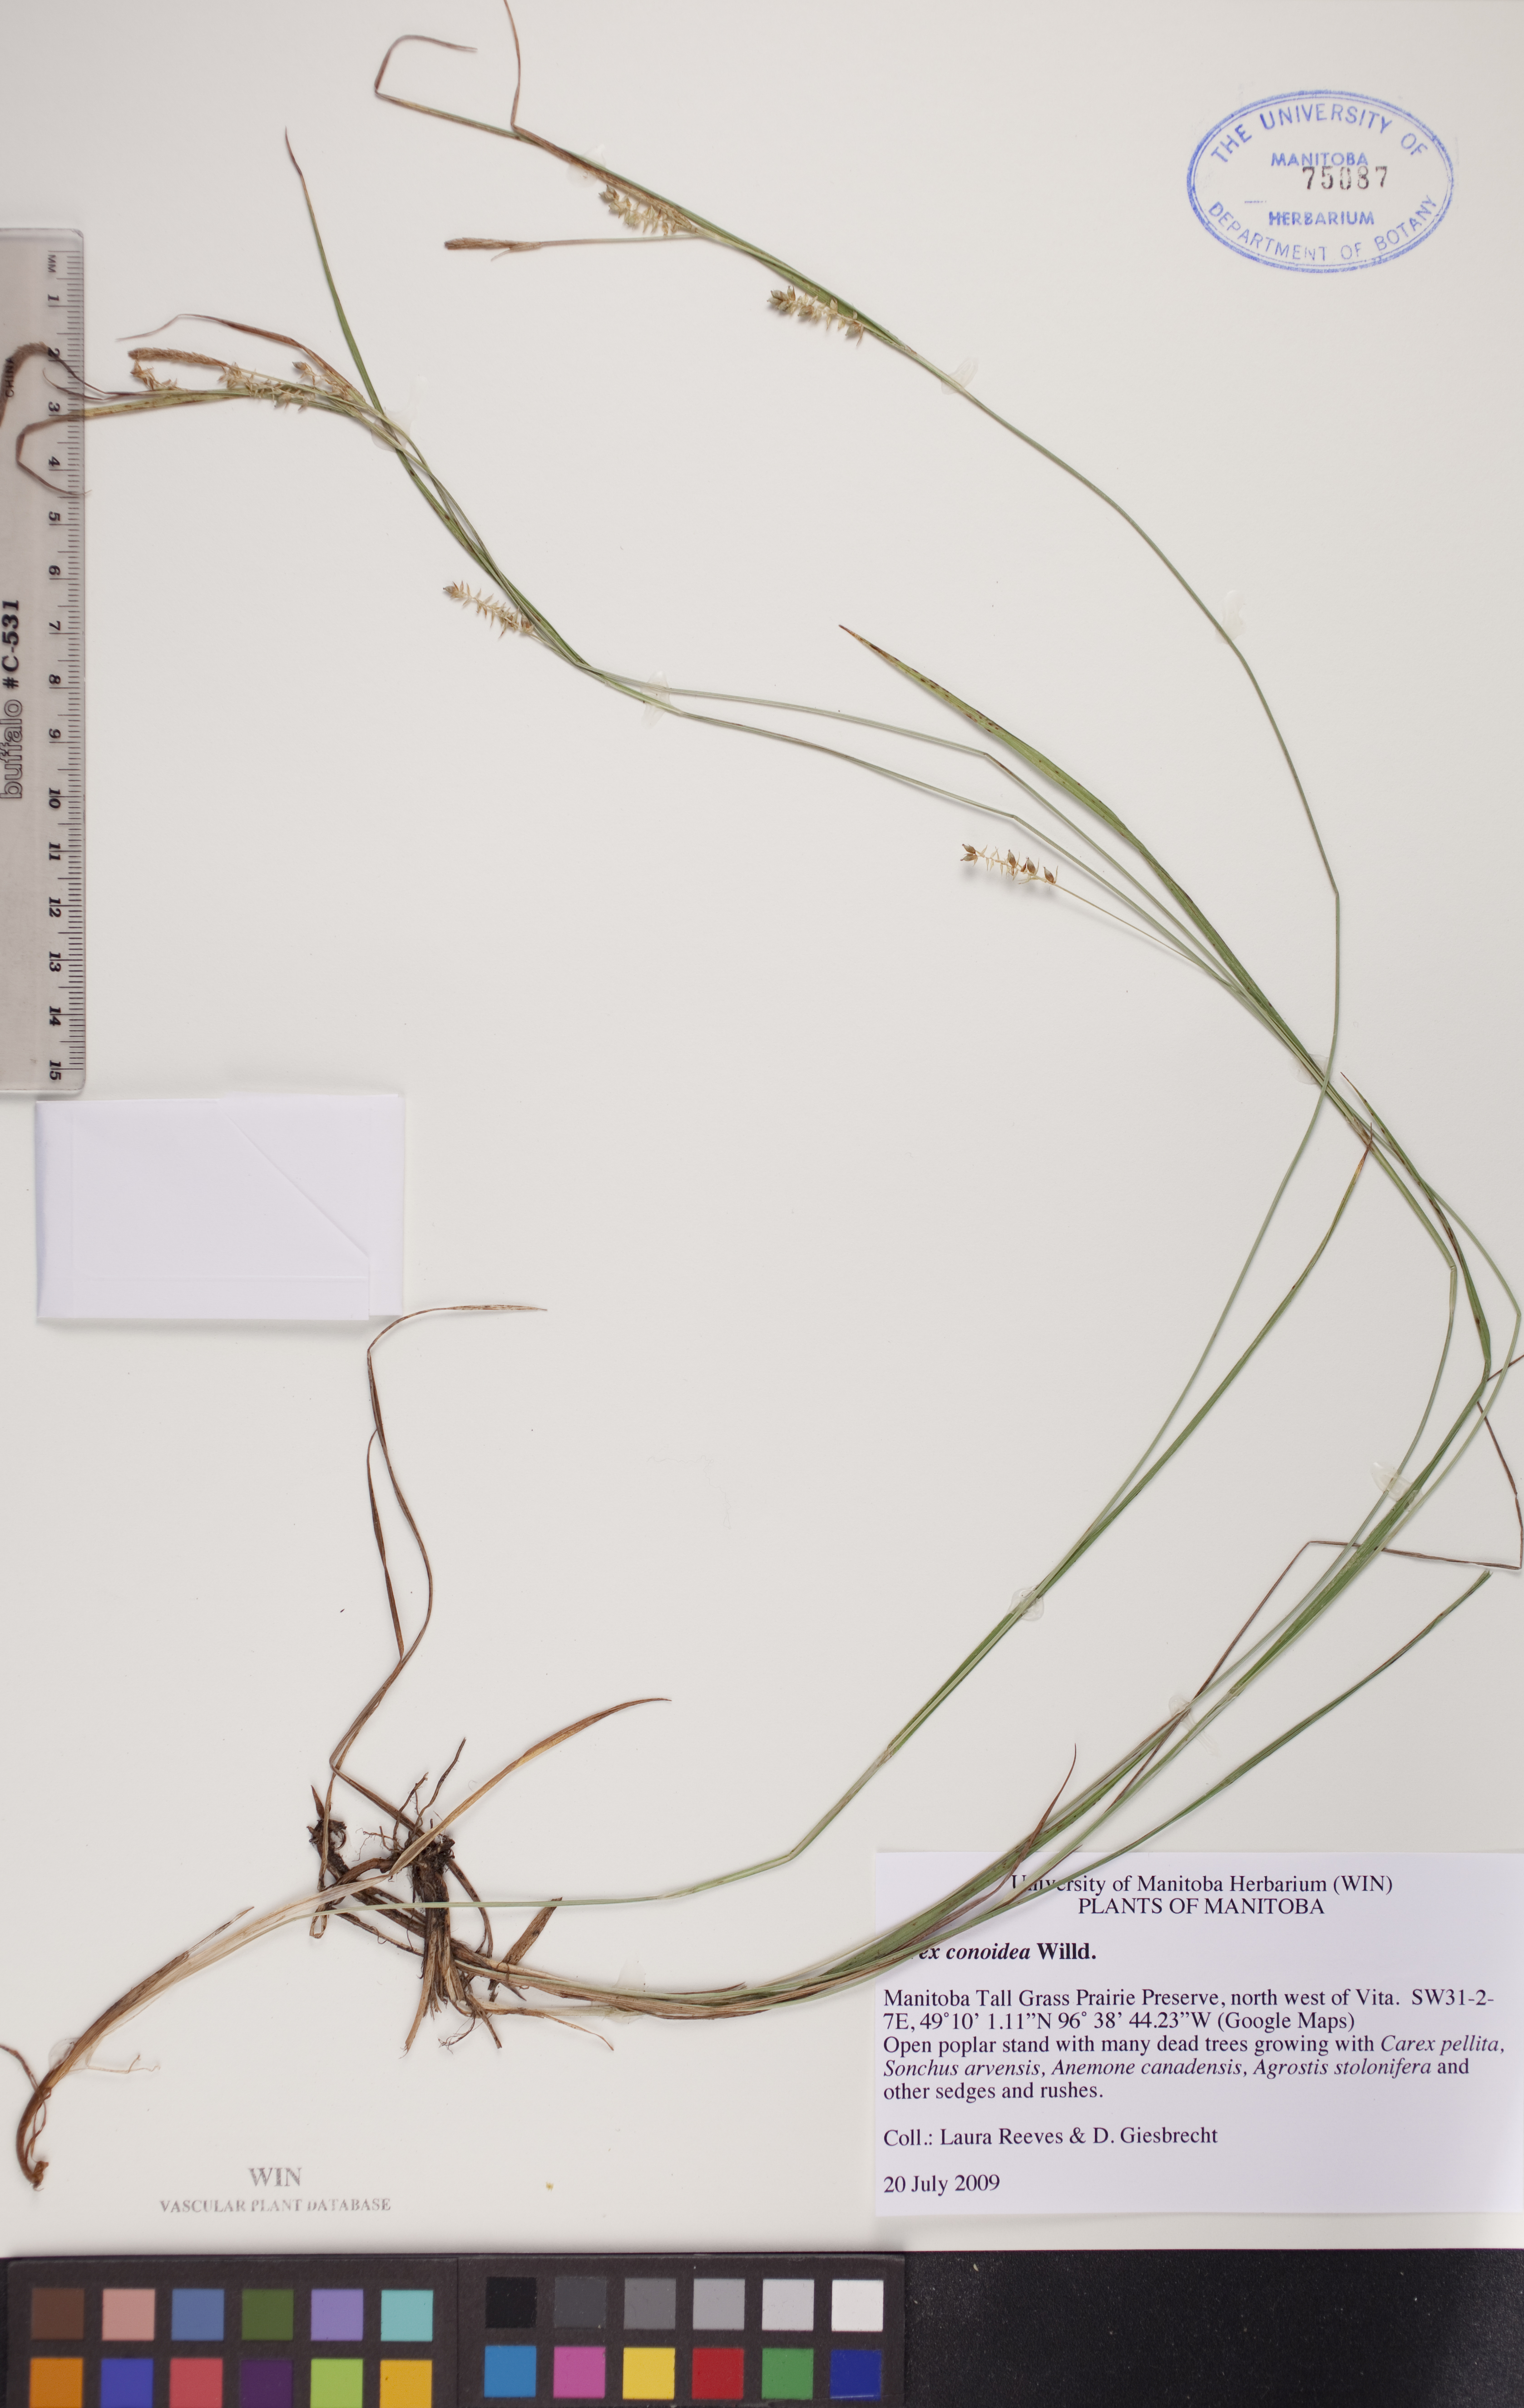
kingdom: Plantae
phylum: Tracheophyta
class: Liliopsida
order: Poales
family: Cyperaceae
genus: Carex
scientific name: Carex conoidea
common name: Cone shaped sedge
